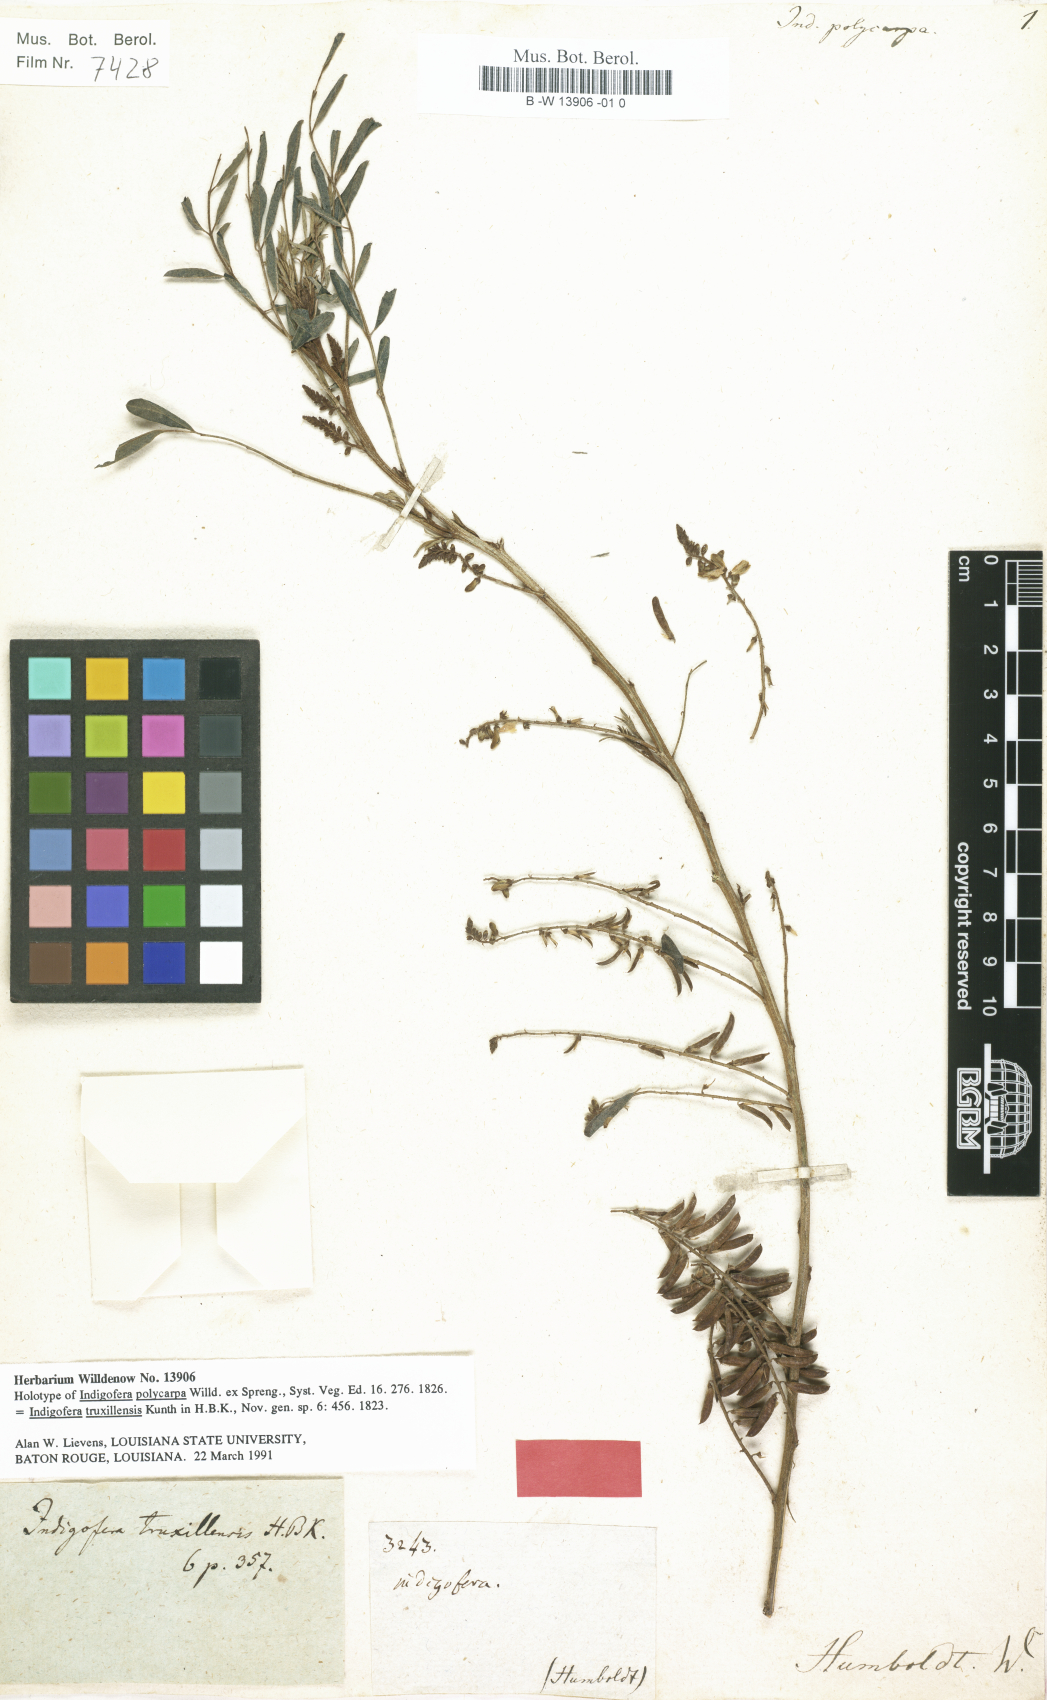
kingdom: Plantae
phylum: Tracheophyta
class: Magnoliopsida
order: Fabales
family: Fabaceae
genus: Indigofera
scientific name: Indigofera truxillensis
